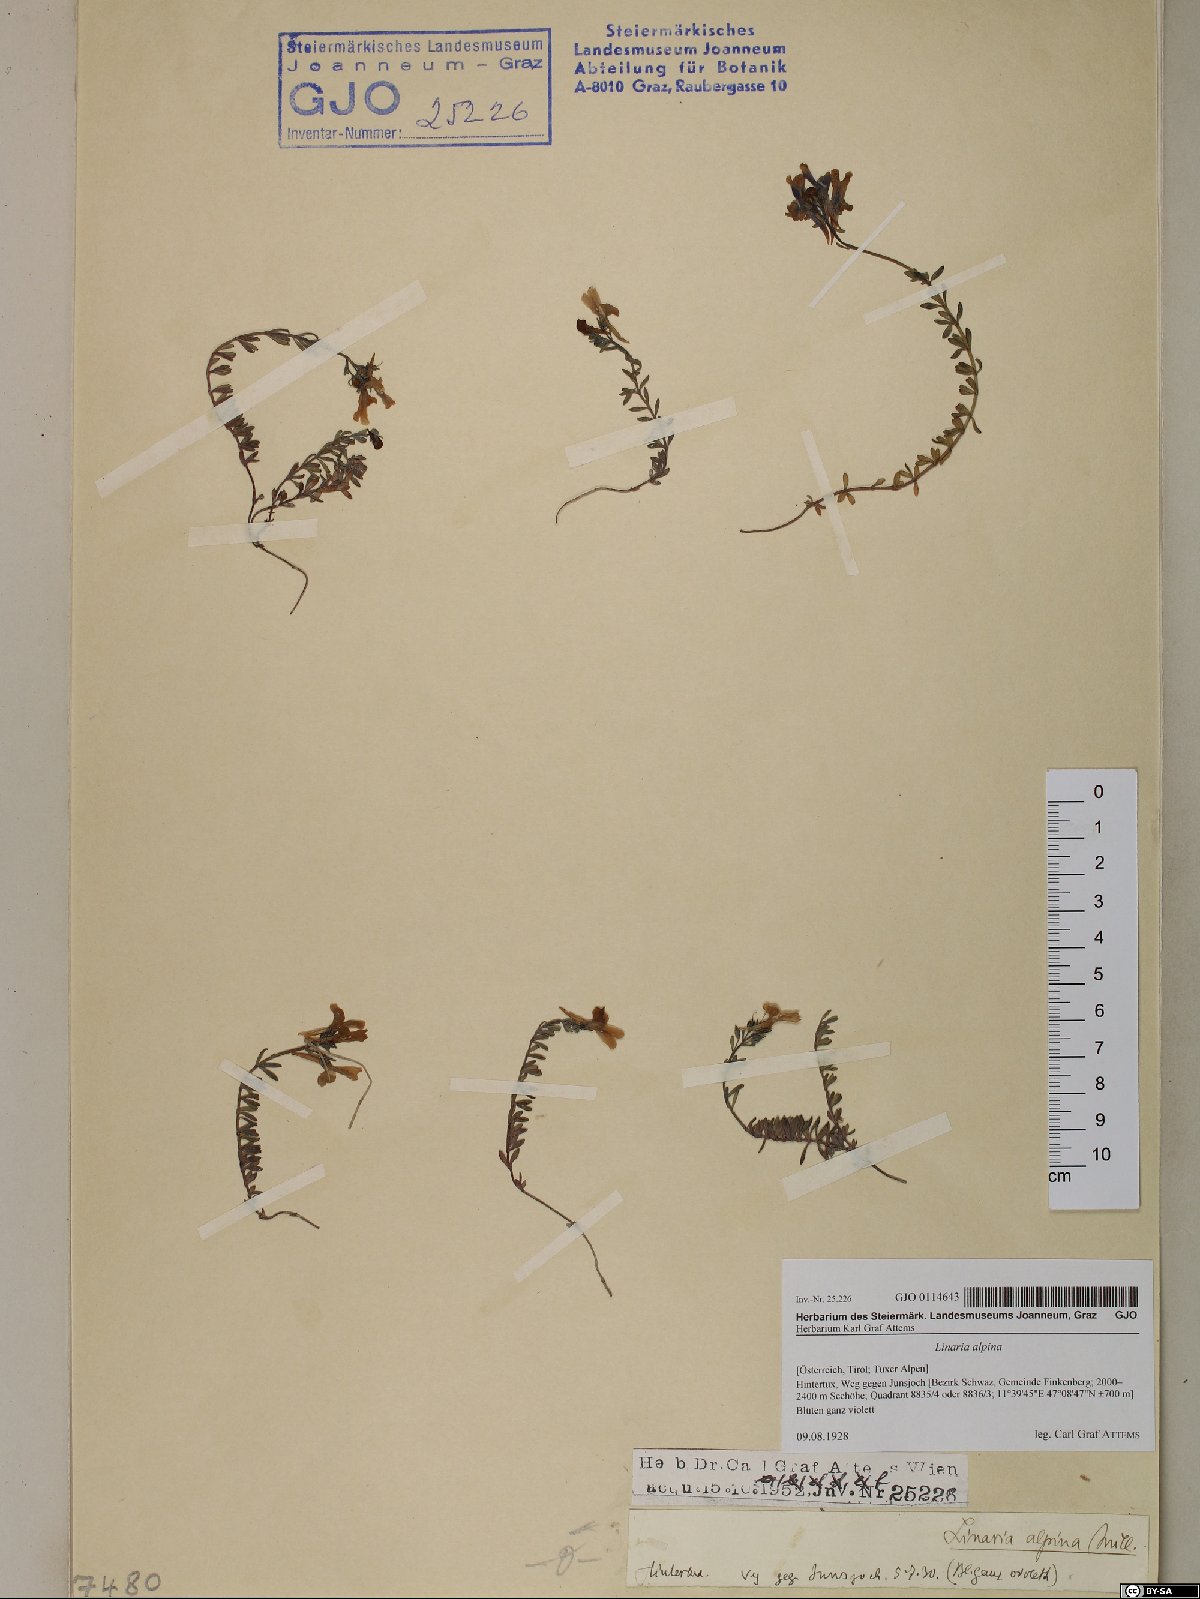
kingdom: Plantae
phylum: Tracheophyta
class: Magnoliopsida
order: Lamiales
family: Plantaginaceae
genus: Linaria
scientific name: Linaria alpina
